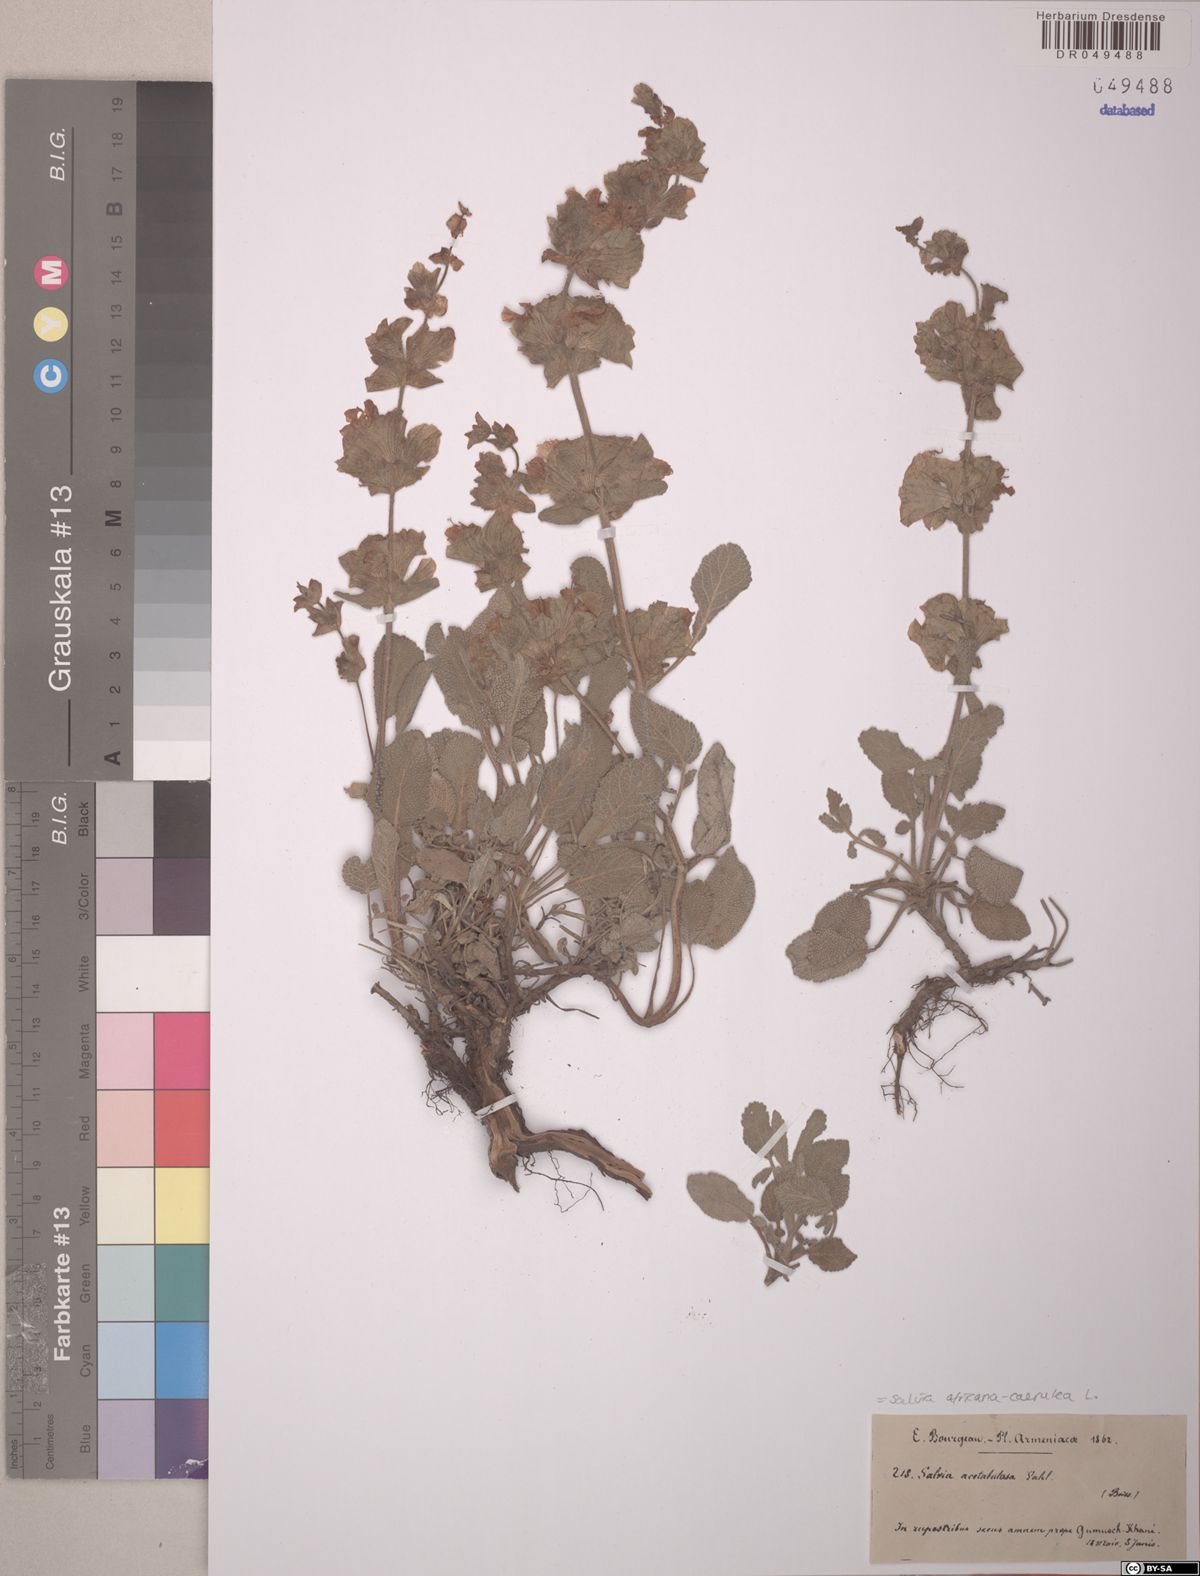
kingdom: Plantae
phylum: Tracheophyta
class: Magnoliopsida
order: Lamiales
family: Lamiaceae
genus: Salvia
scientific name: Salvia africana
